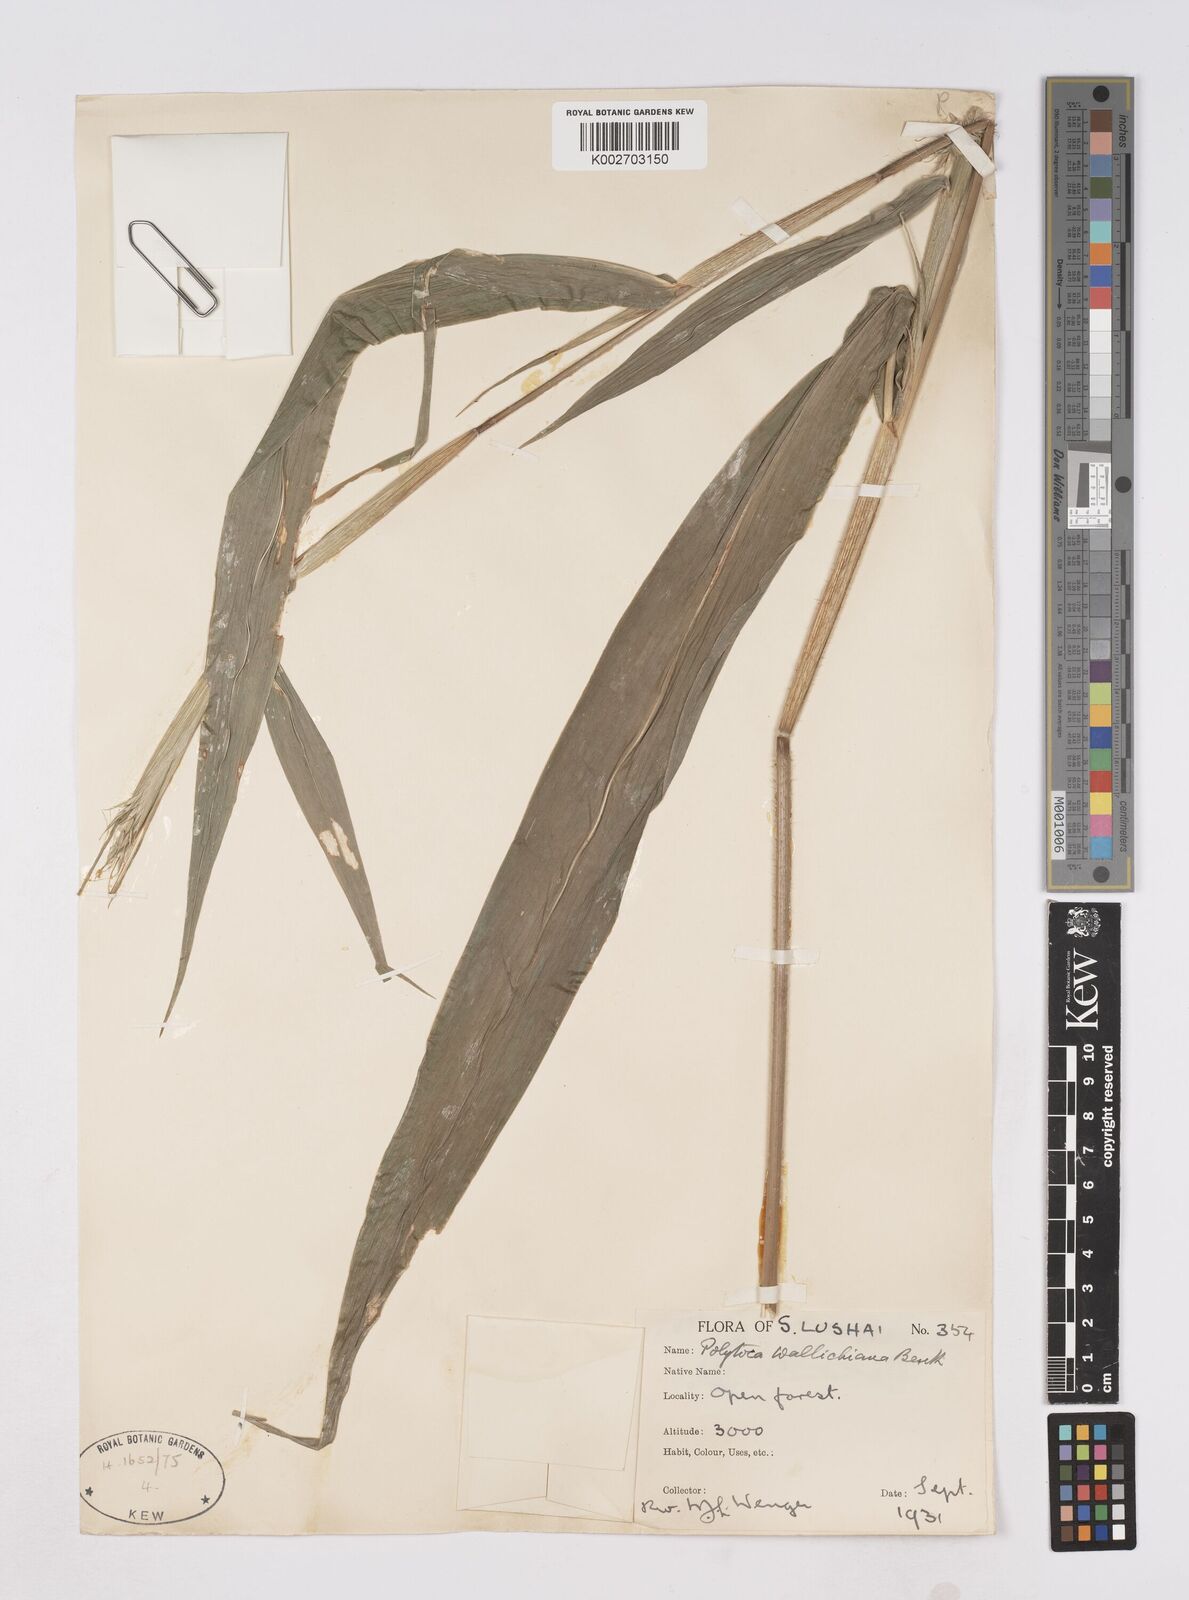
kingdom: Plantae
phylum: Tracheophyta
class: Liliopsida
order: Poales
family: Poaceae
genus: Polytoca
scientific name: Polytoca wallichiana
